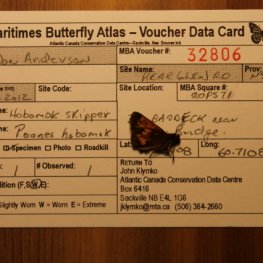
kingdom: Animalia
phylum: Arthropoda
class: Insecta
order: Lepidoptera
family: Hesperiidae
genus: Lon
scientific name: Lon hobomok
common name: Hobomok Skipper
